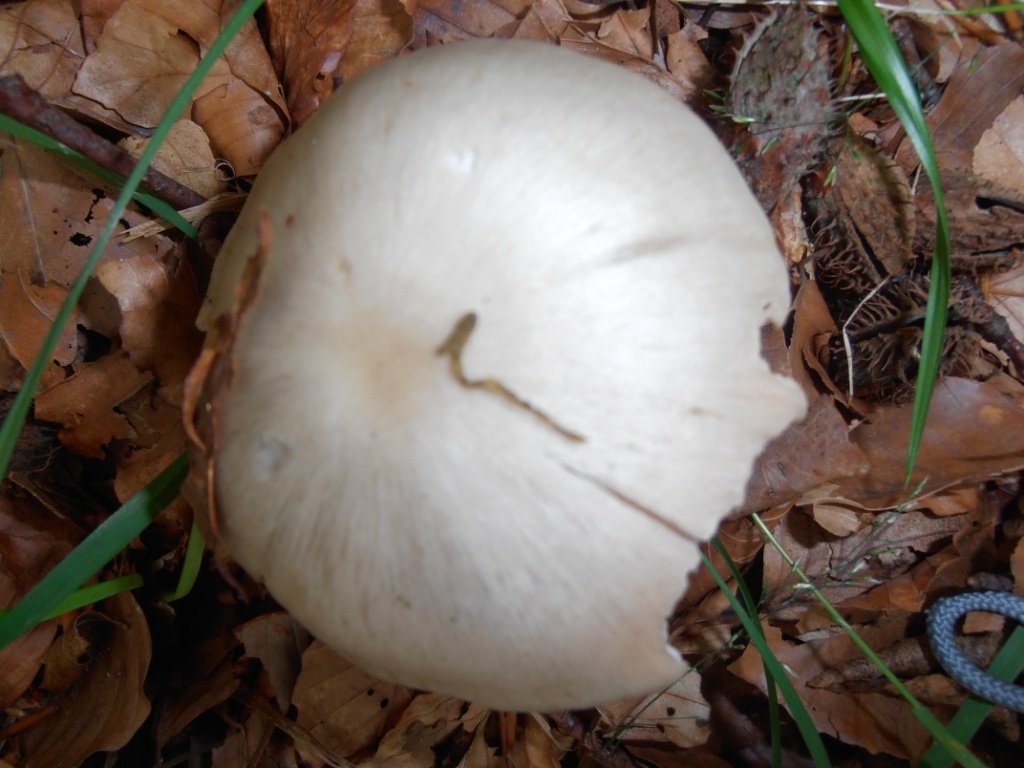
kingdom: Fungi
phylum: Basidiomycota
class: Agaricomycetes
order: Agaricales
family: Entolomataceae
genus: Entoloma
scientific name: Entoloma rhodopolium
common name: skov-rødblad
